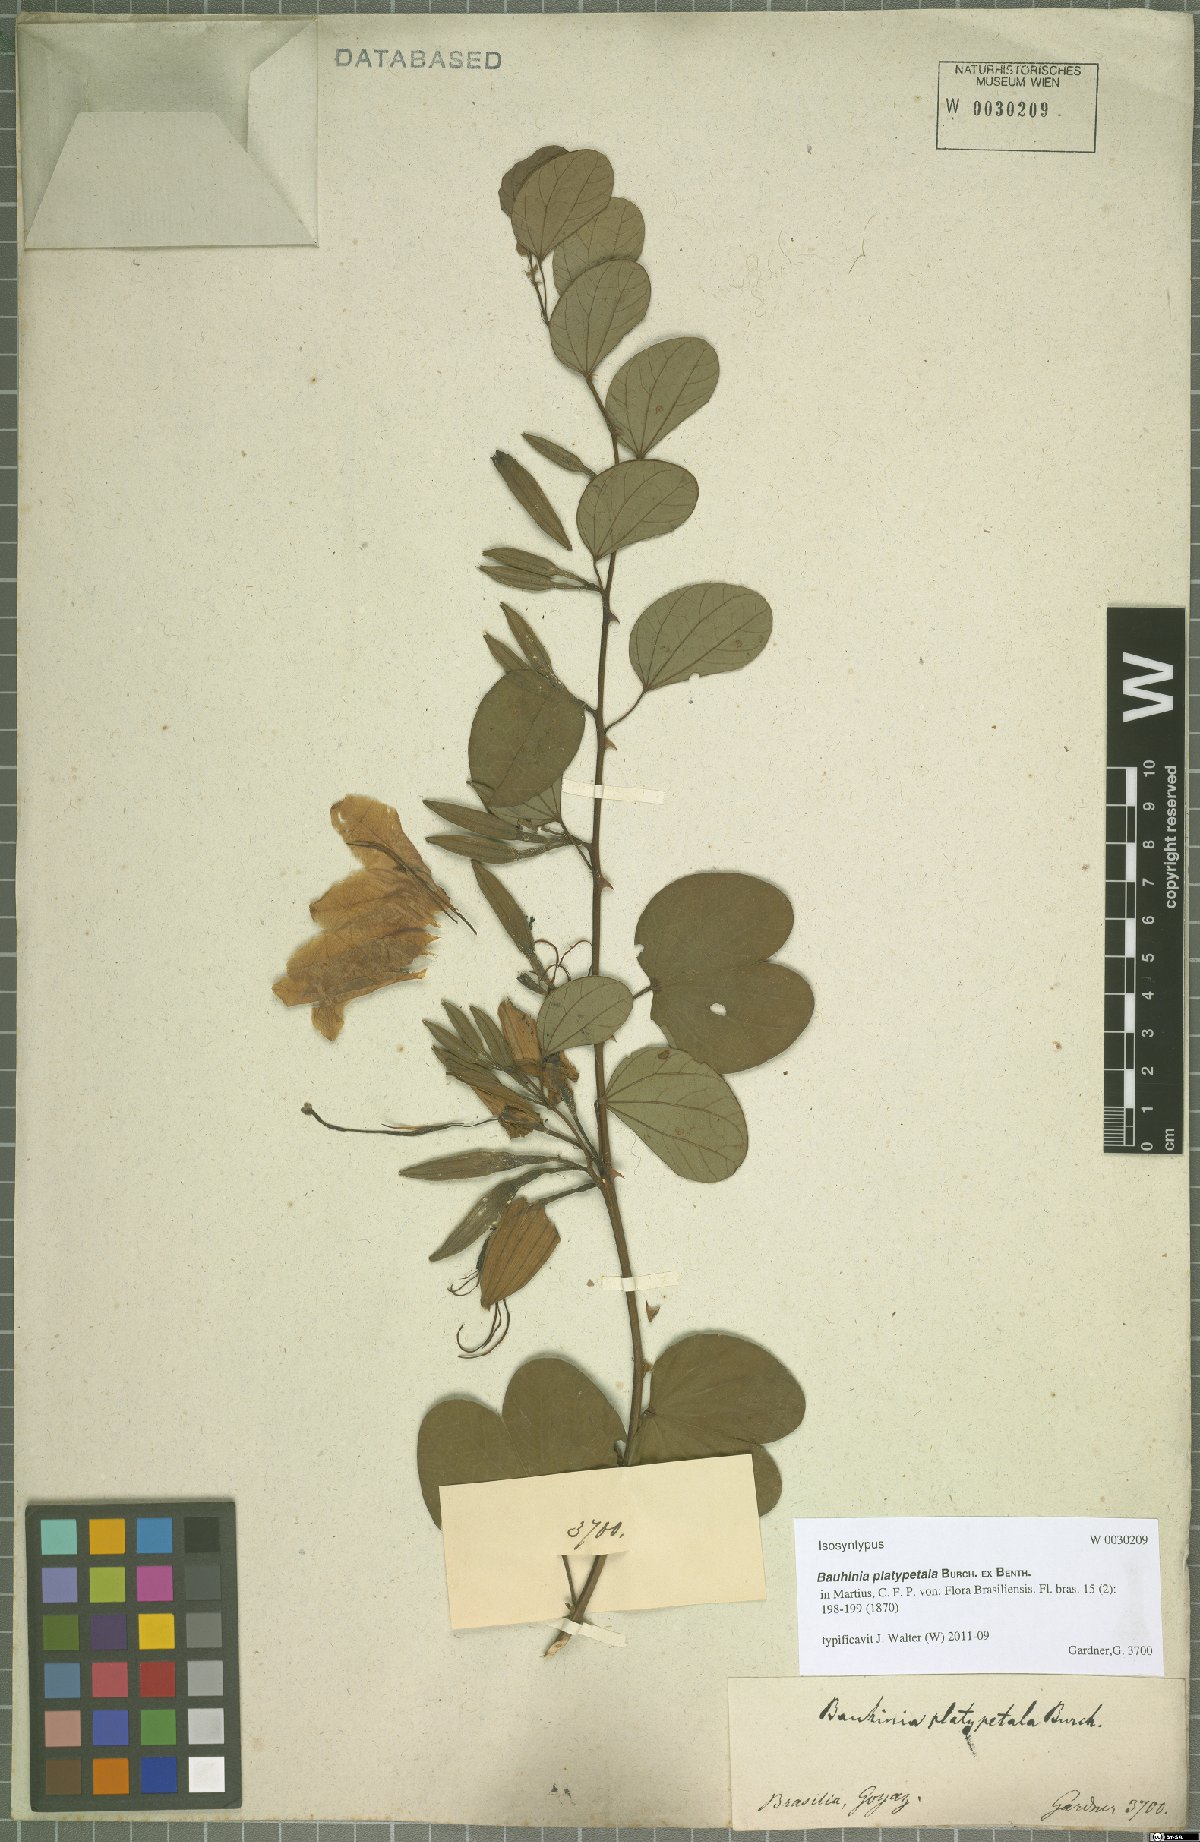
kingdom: Plantae
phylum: Tracheophyta
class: Magnoliopsida
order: Fabales
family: Fabaceae
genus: Bauhinia
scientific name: Bauhinia platypetala
